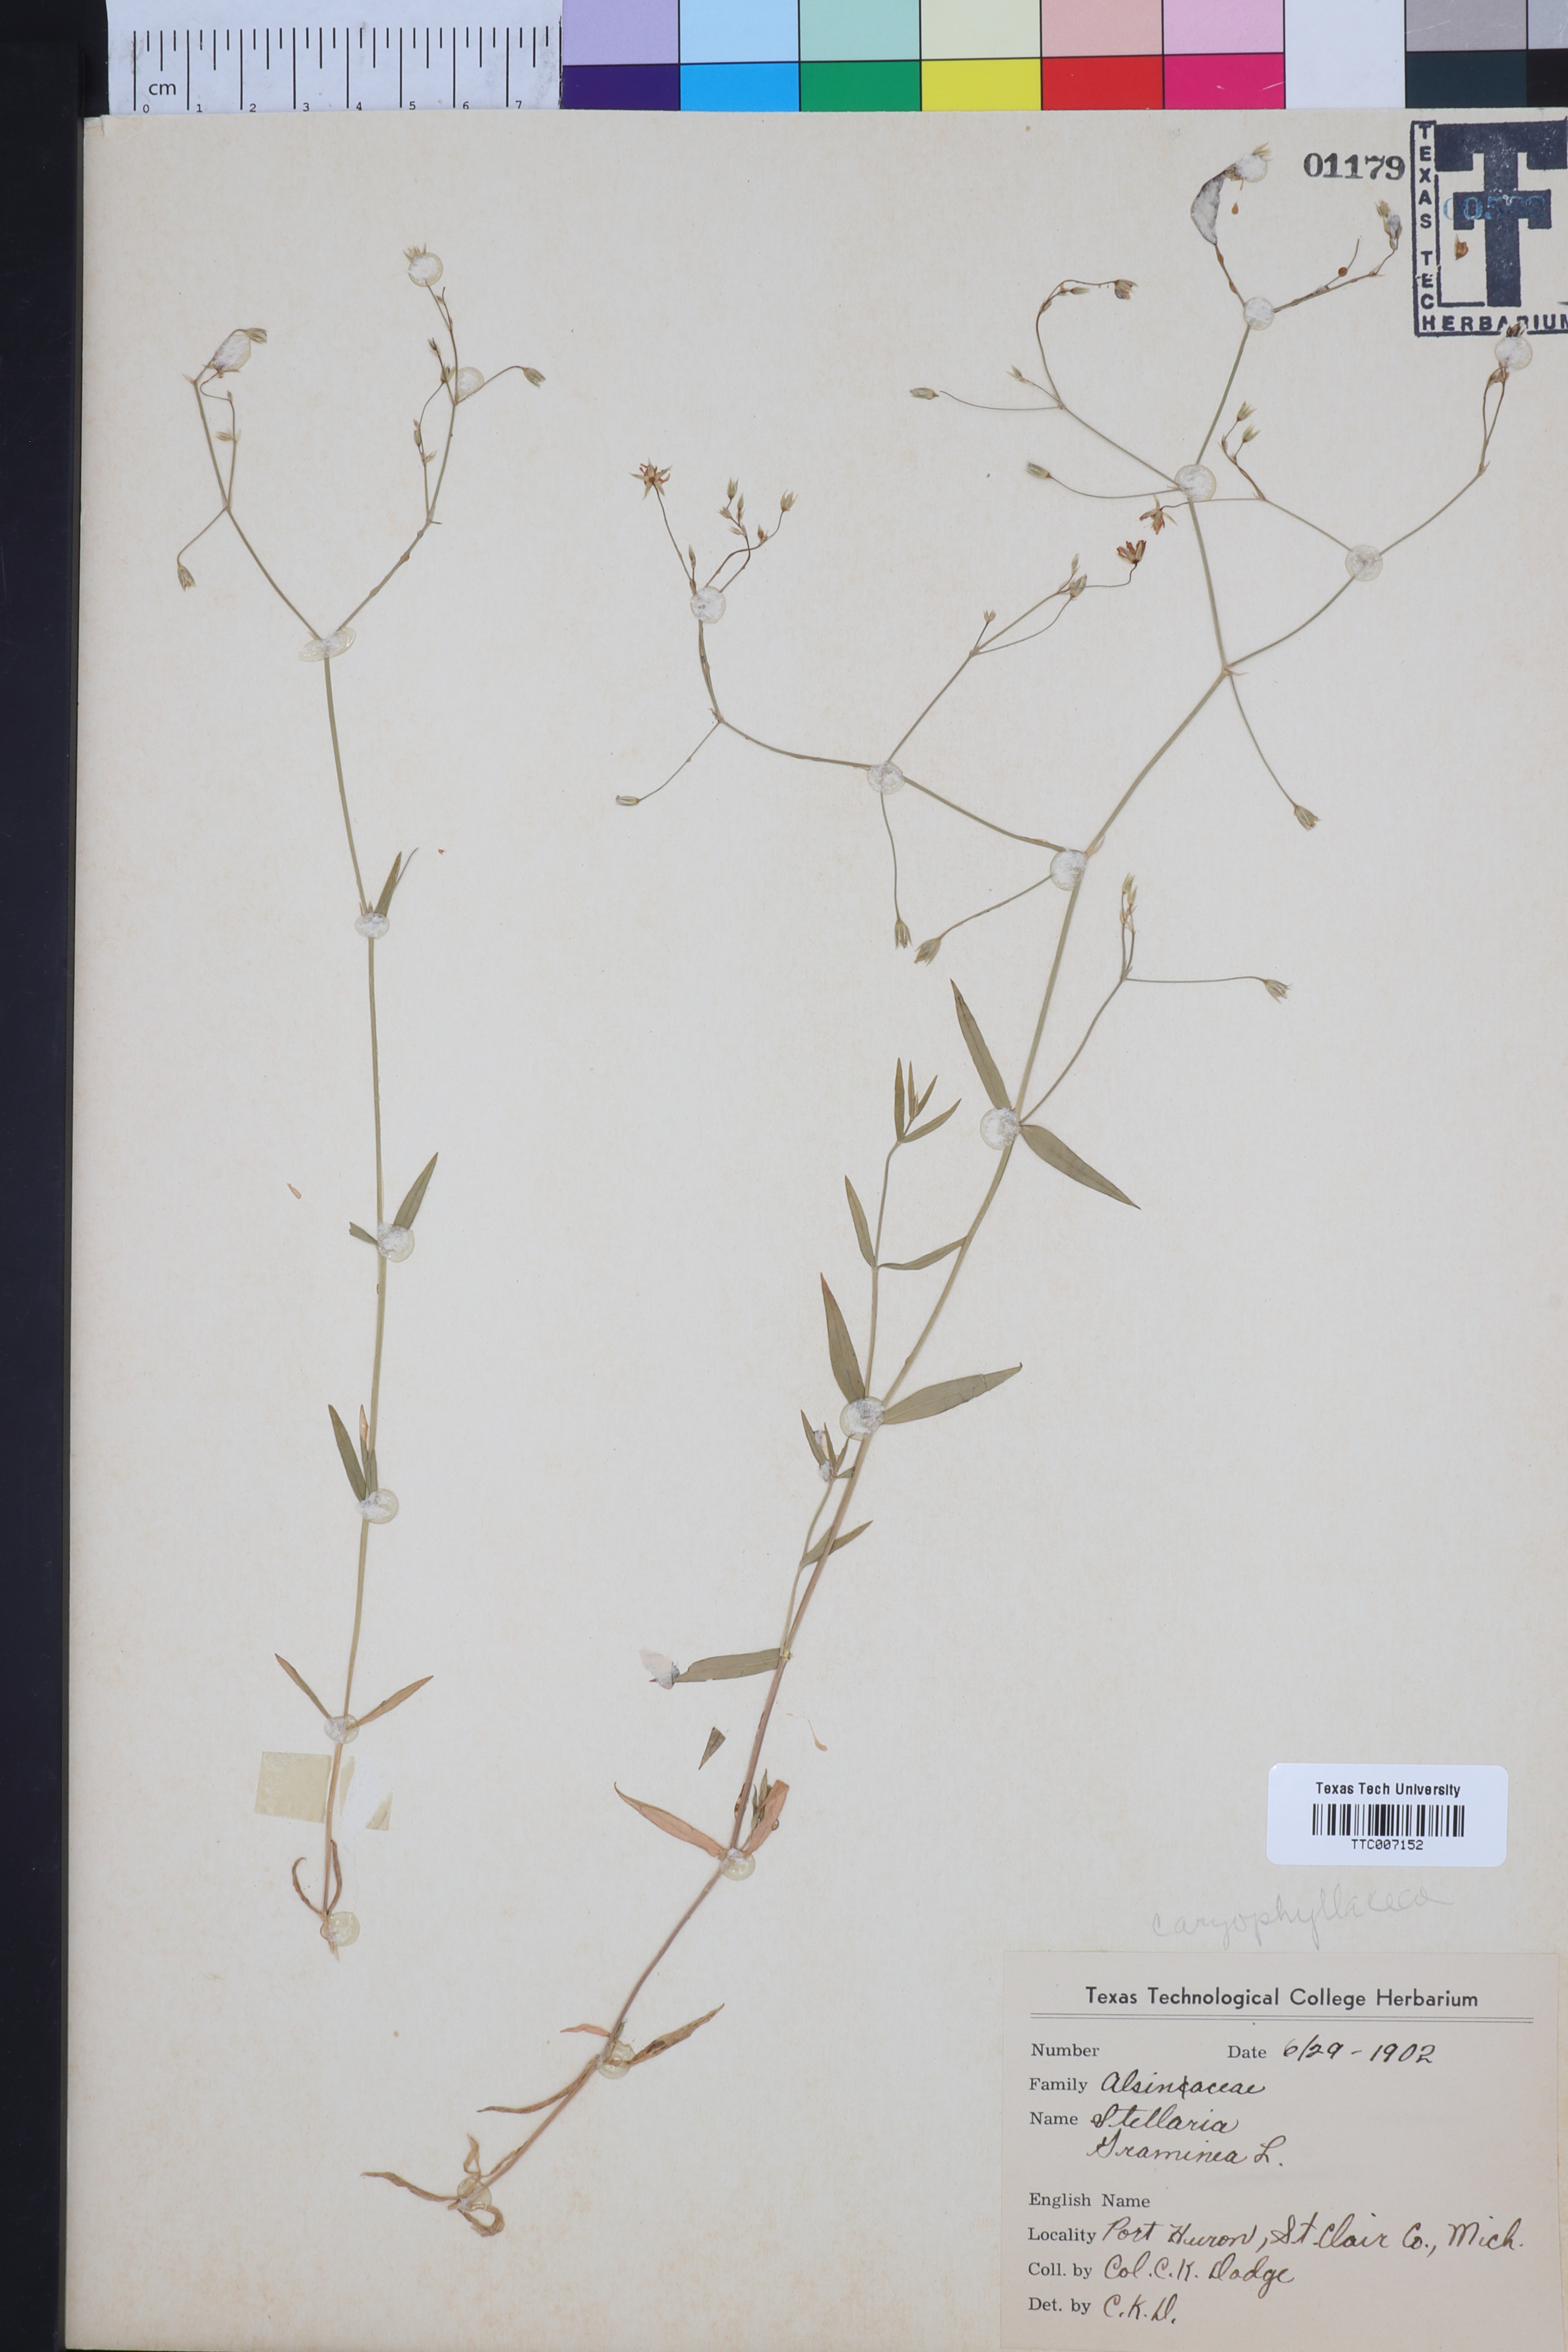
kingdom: Plantae
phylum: Tracheophyta
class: Magnoliopsida
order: Caryophyllales
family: Caryophyllaceae
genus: Stellaria
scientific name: Stellaria graminea
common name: Grass-like starwort
